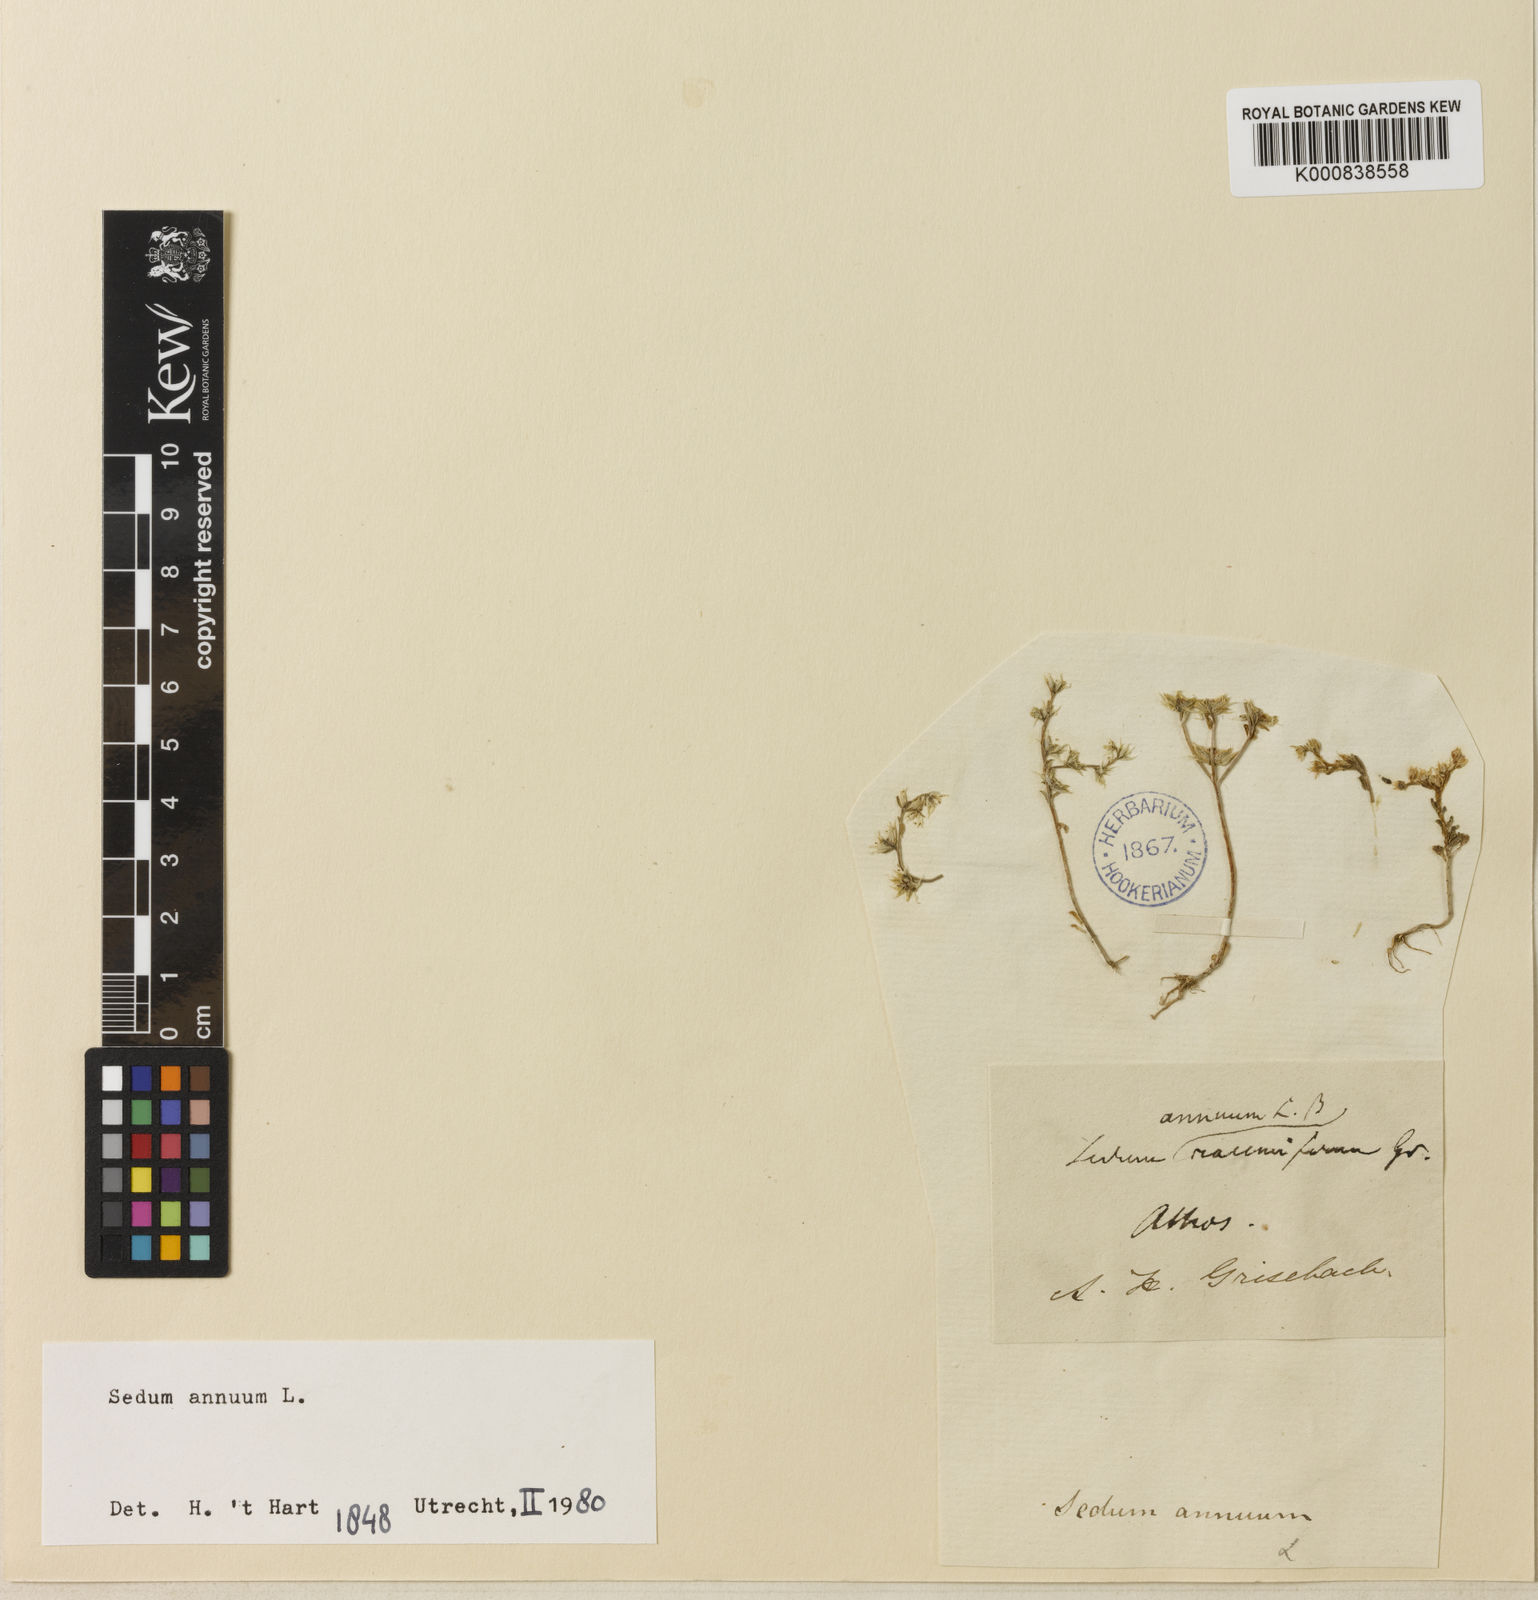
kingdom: Plantae
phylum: Tracheophyta
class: Magnoliopsida
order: Saxifragales
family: Crassulaceae
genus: Sedum
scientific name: Sedum annuum
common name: Annual stonecrop
